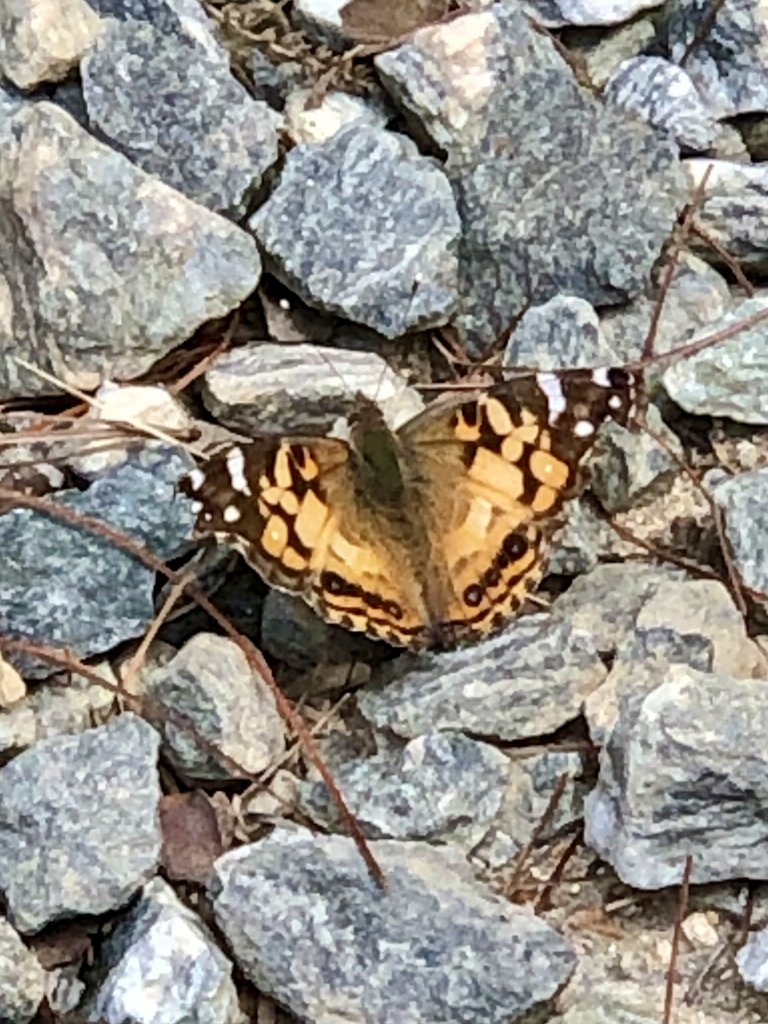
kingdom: Animalia
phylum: Arthropoda
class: Insecta
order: Lepidoptera
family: Nymphalidae
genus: Vanessa
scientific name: Vanessa virginiensis
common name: American Lady
